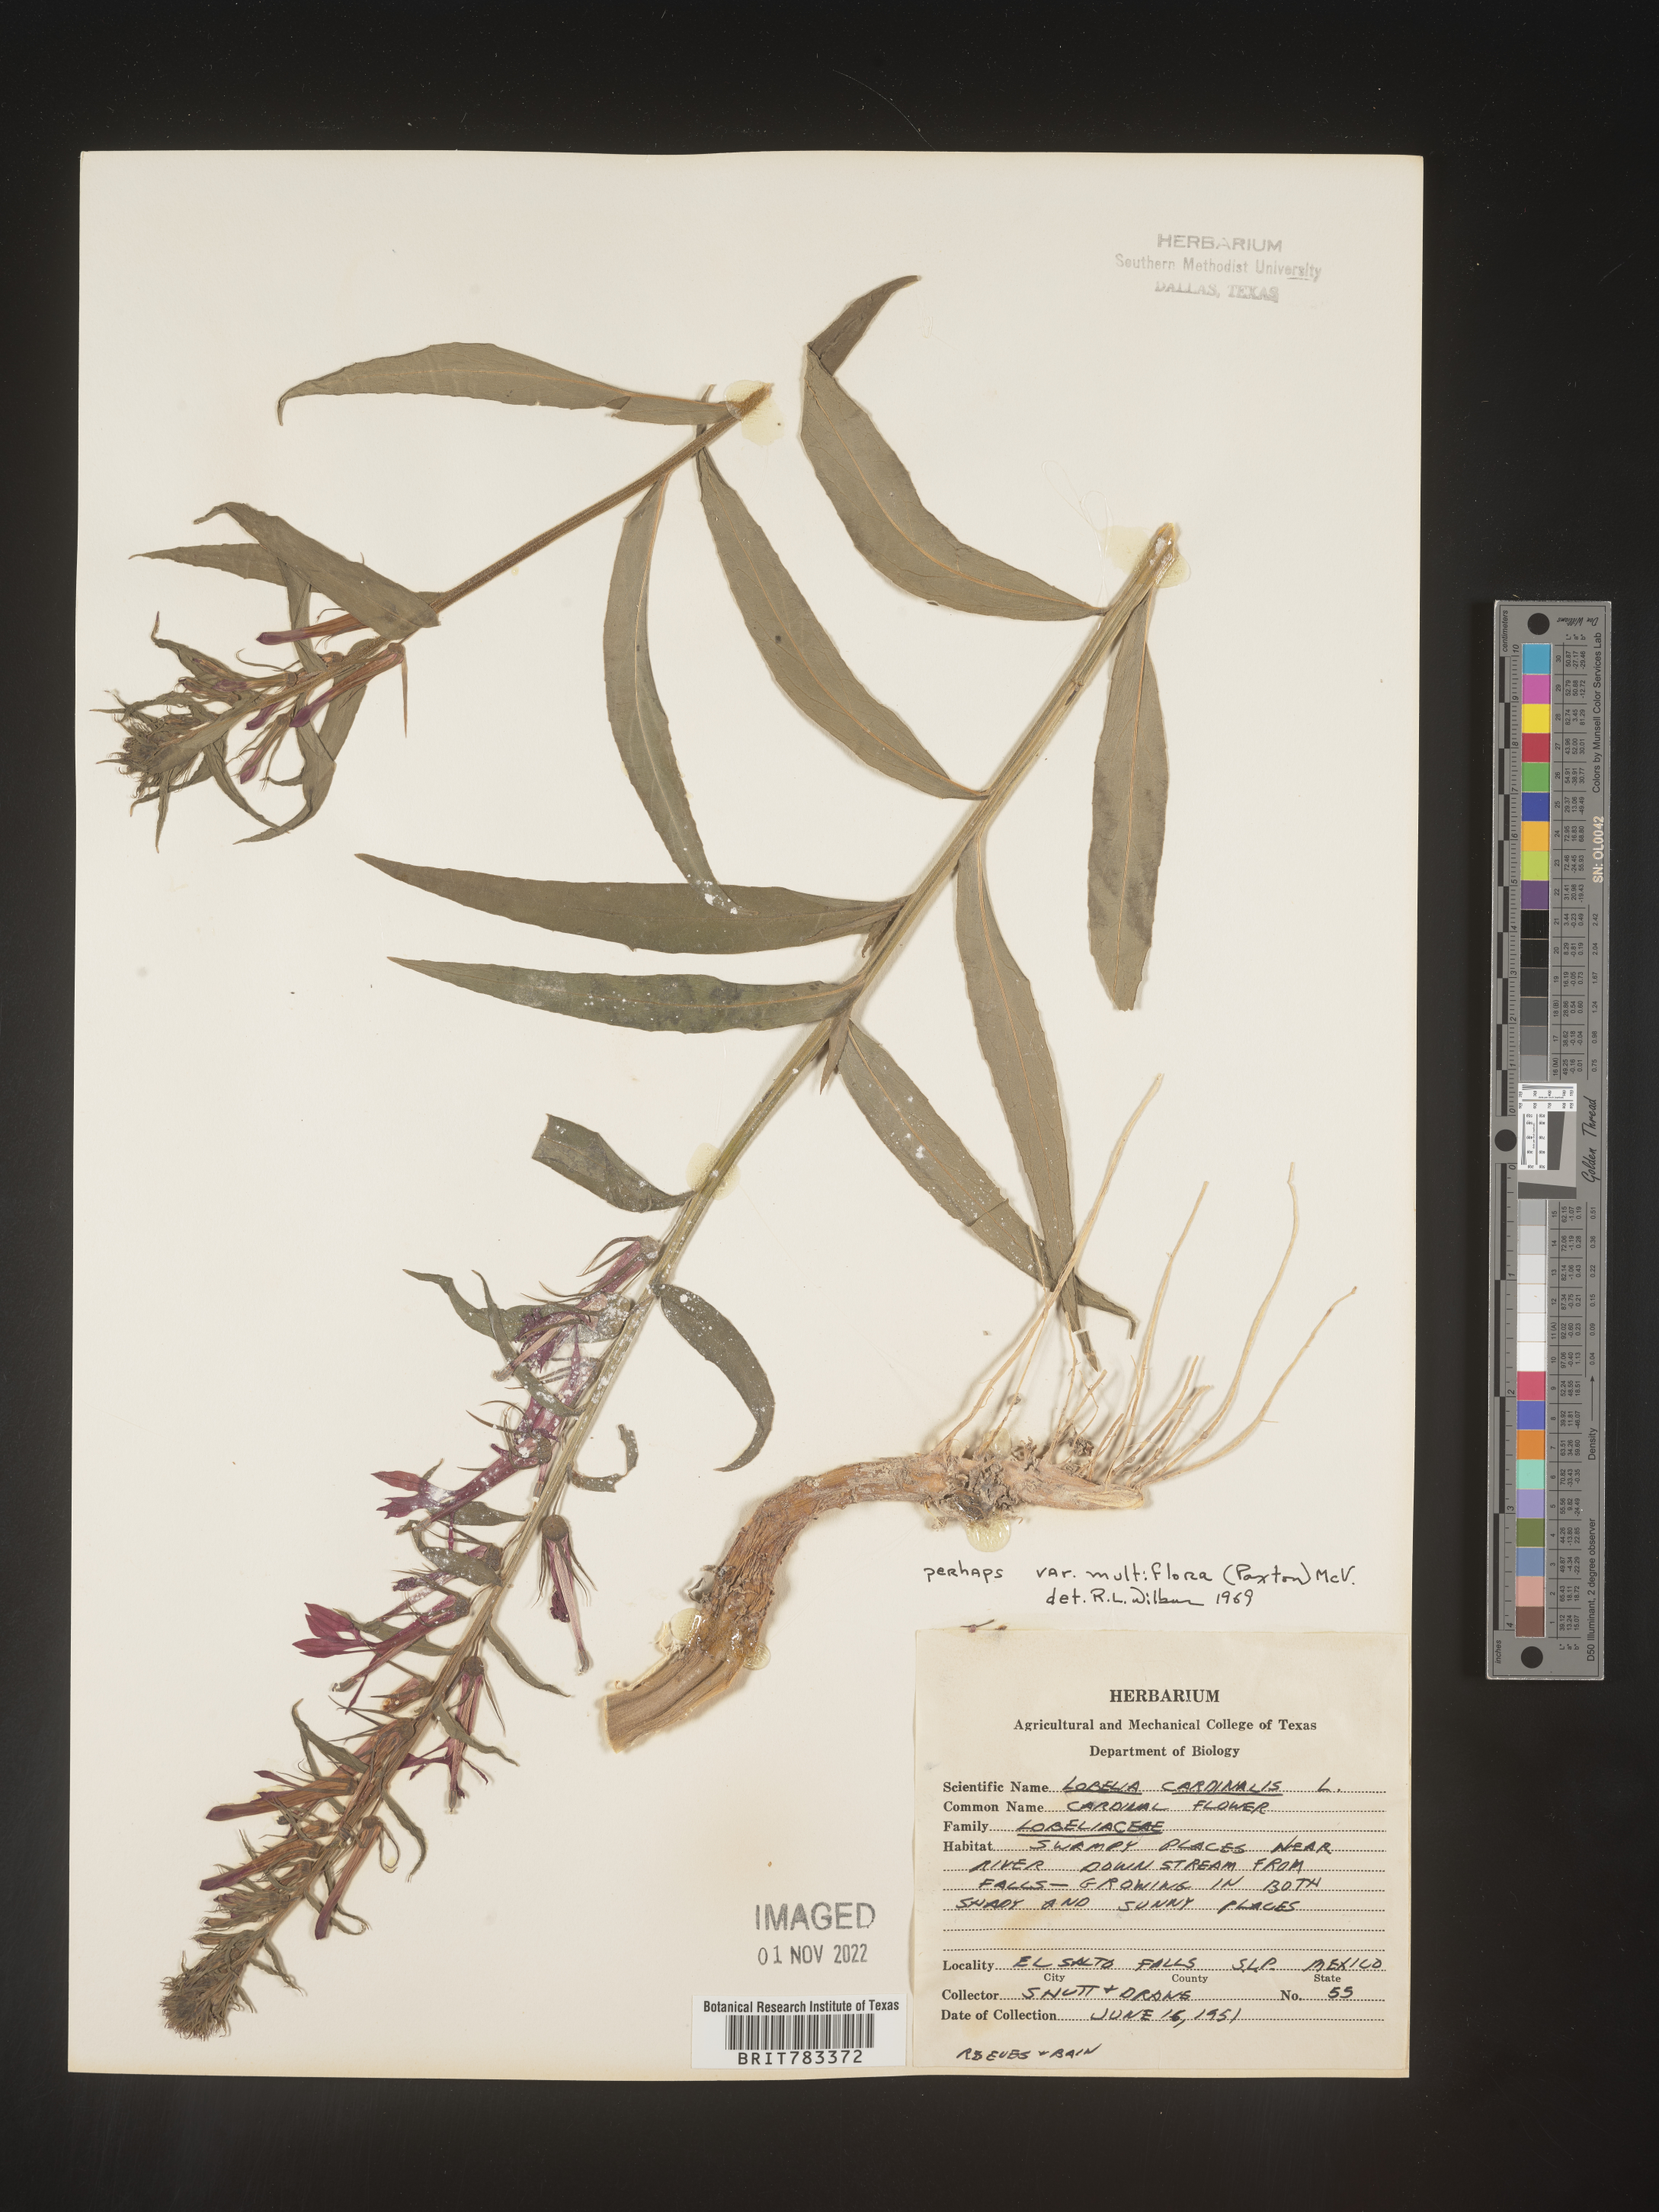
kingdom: Plantae
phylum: Tracheophyta
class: Magnoliopsida
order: Asterales
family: Campanulaceae
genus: Lobelia
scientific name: Lobelia
